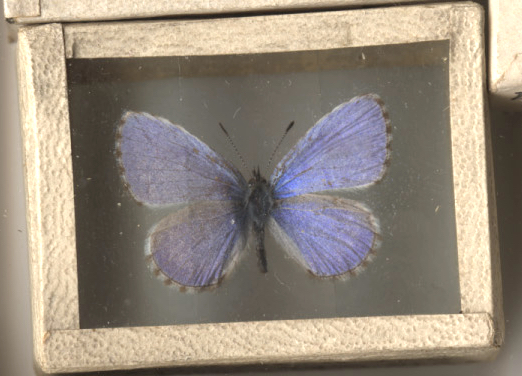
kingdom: Animalia
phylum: Arthropoda
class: Insecta
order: Lepidoptera
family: Lycaenidae
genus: Celastrina
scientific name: Celastrina lucia
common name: Northern Azure
